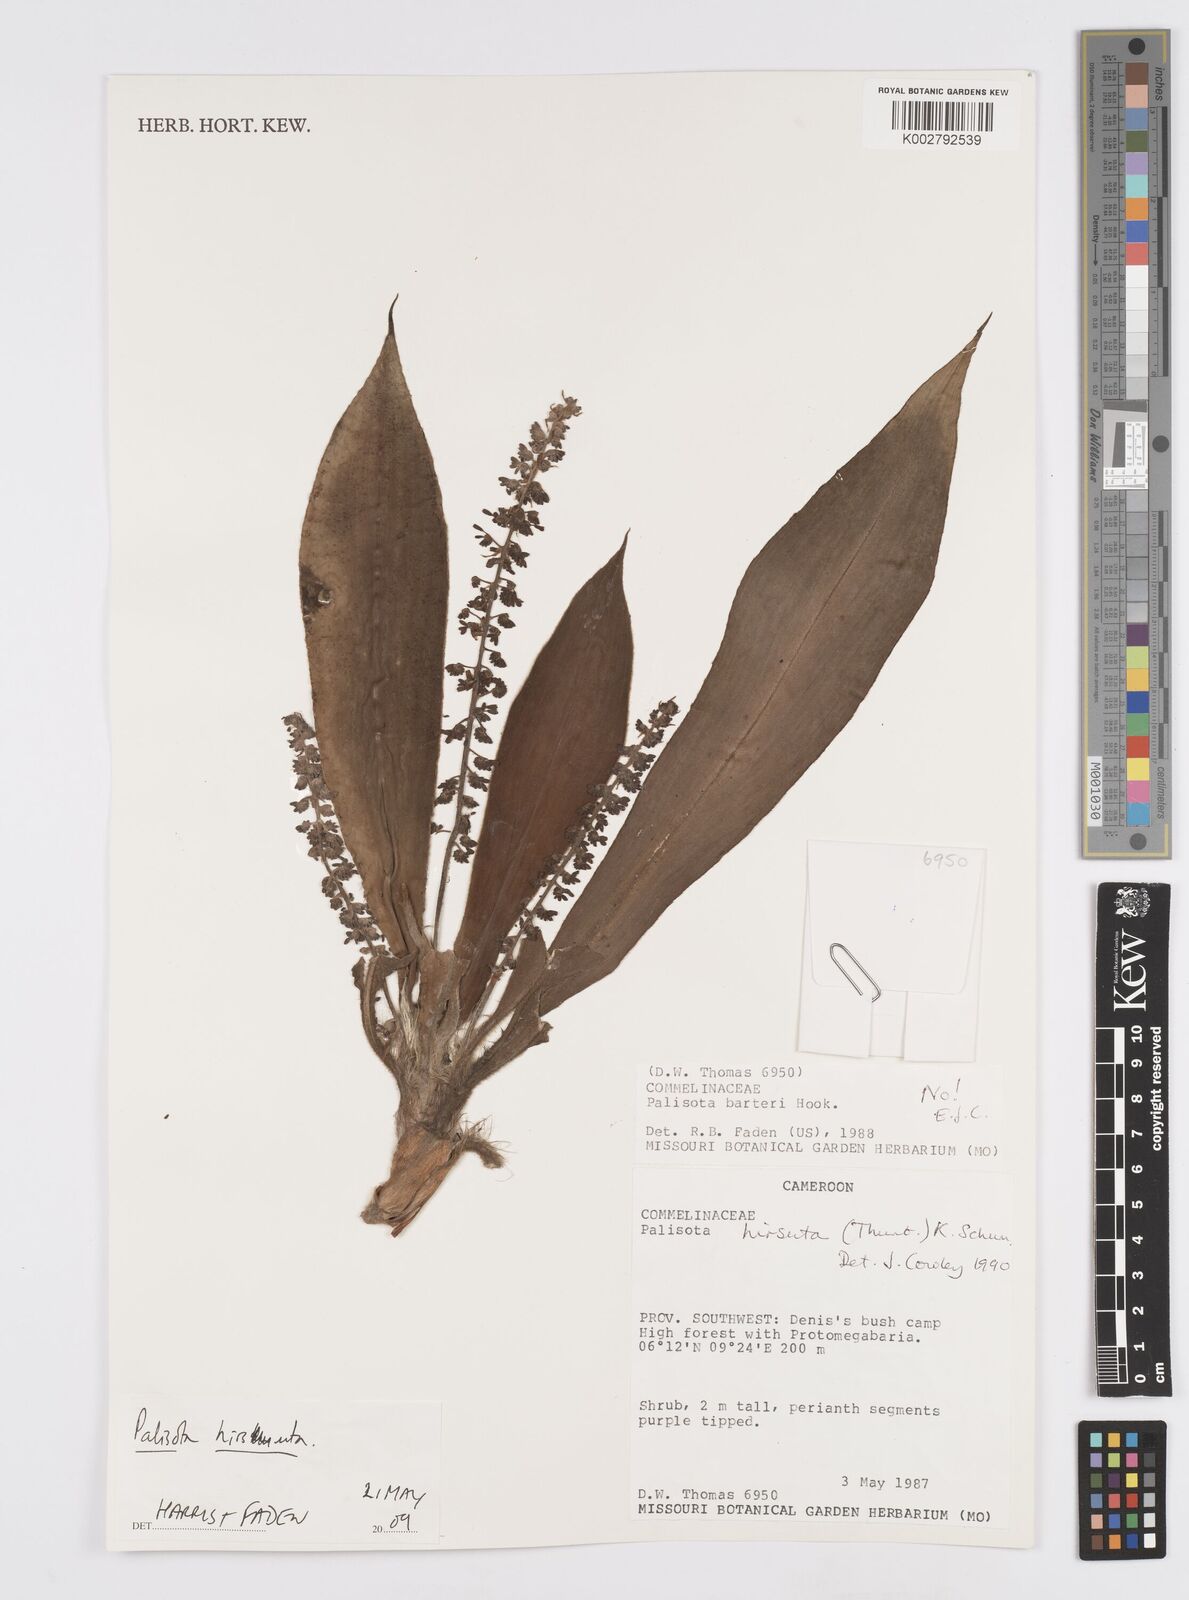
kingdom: Plantae
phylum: Tracheophyta
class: Liliopsida
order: Commelinales
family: Commelinaceae
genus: Palisota
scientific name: Palisota hirsuta
